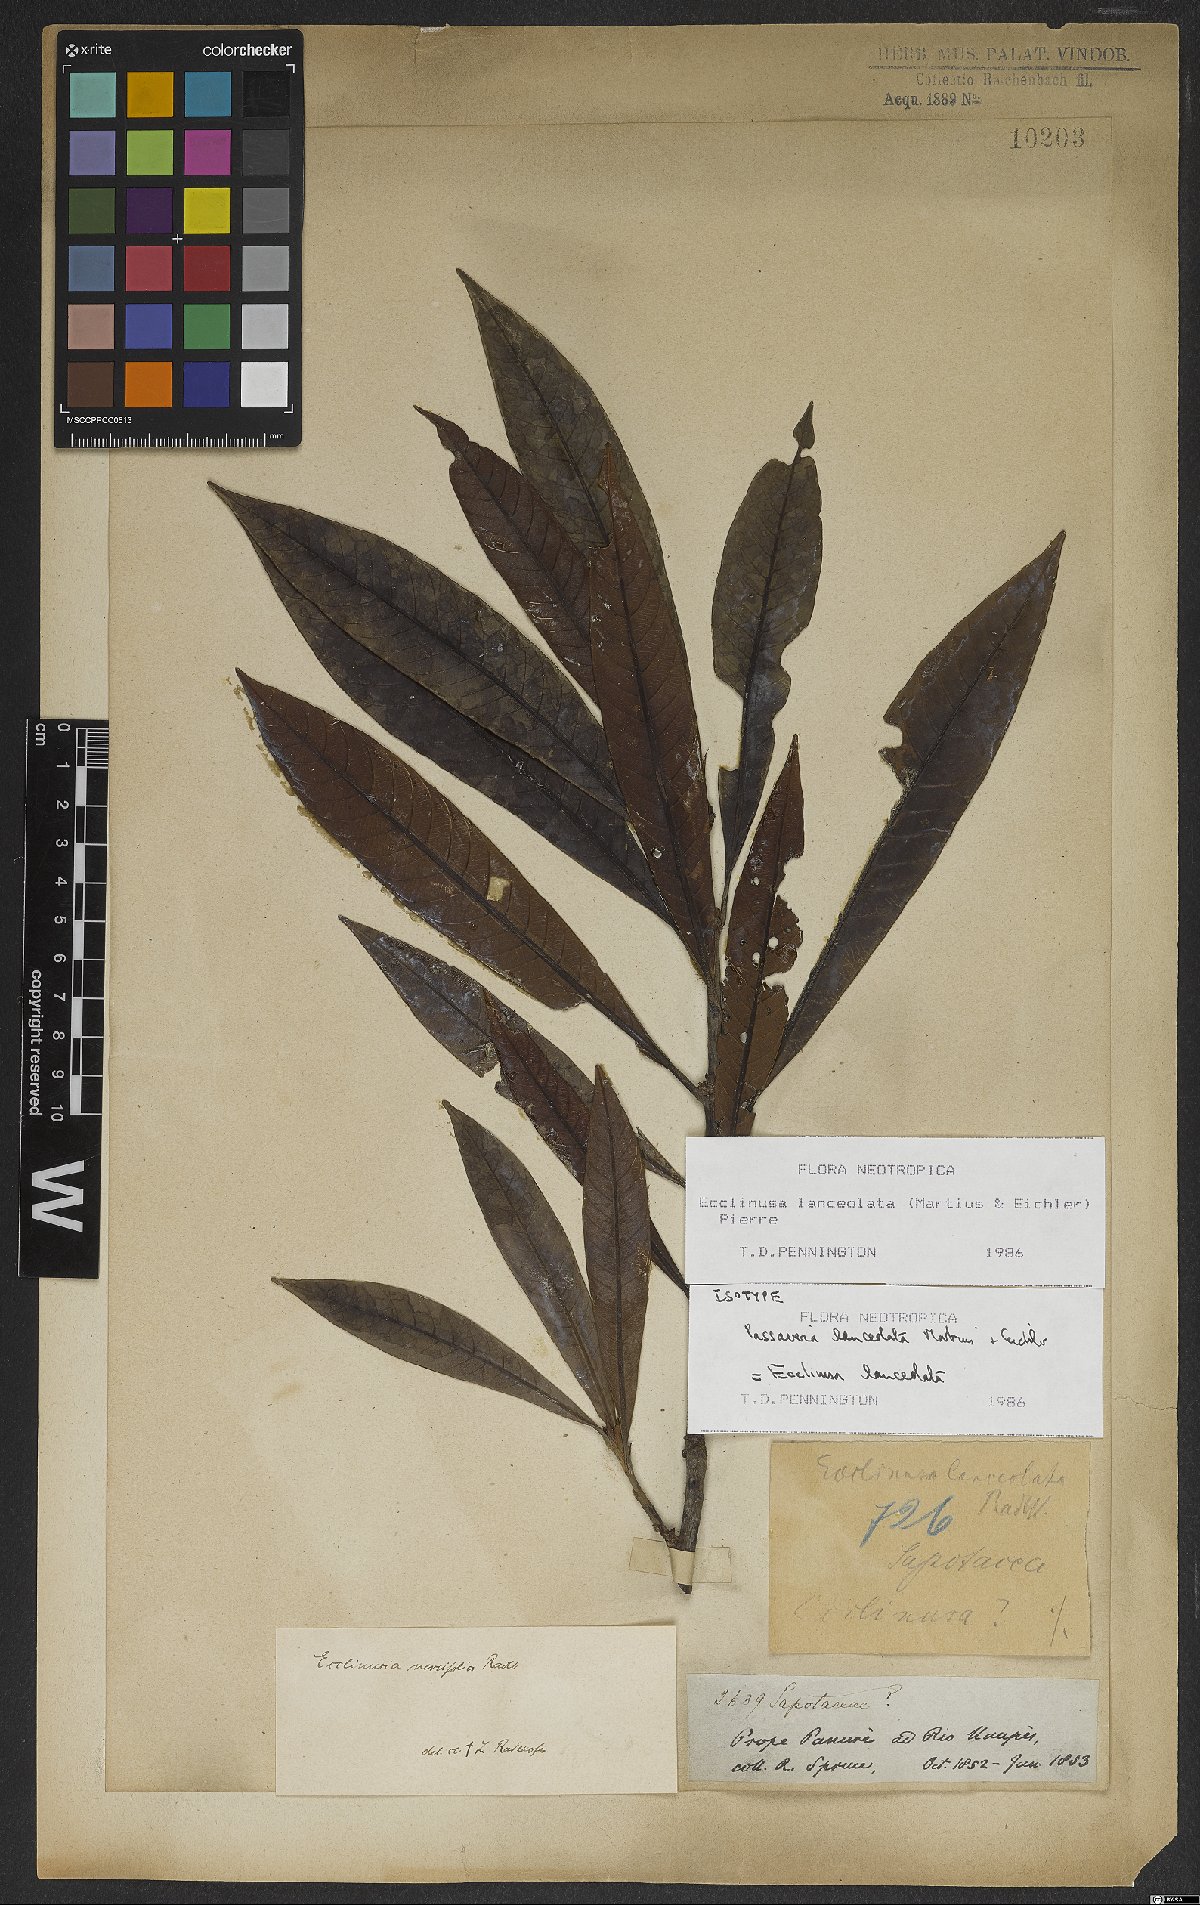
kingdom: Plantae
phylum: Tracheophyta
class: Magnoliopsida
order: Ericales
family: Sapotaceae
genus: Ecclinusa
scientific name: Ecclinusa lanceolata
